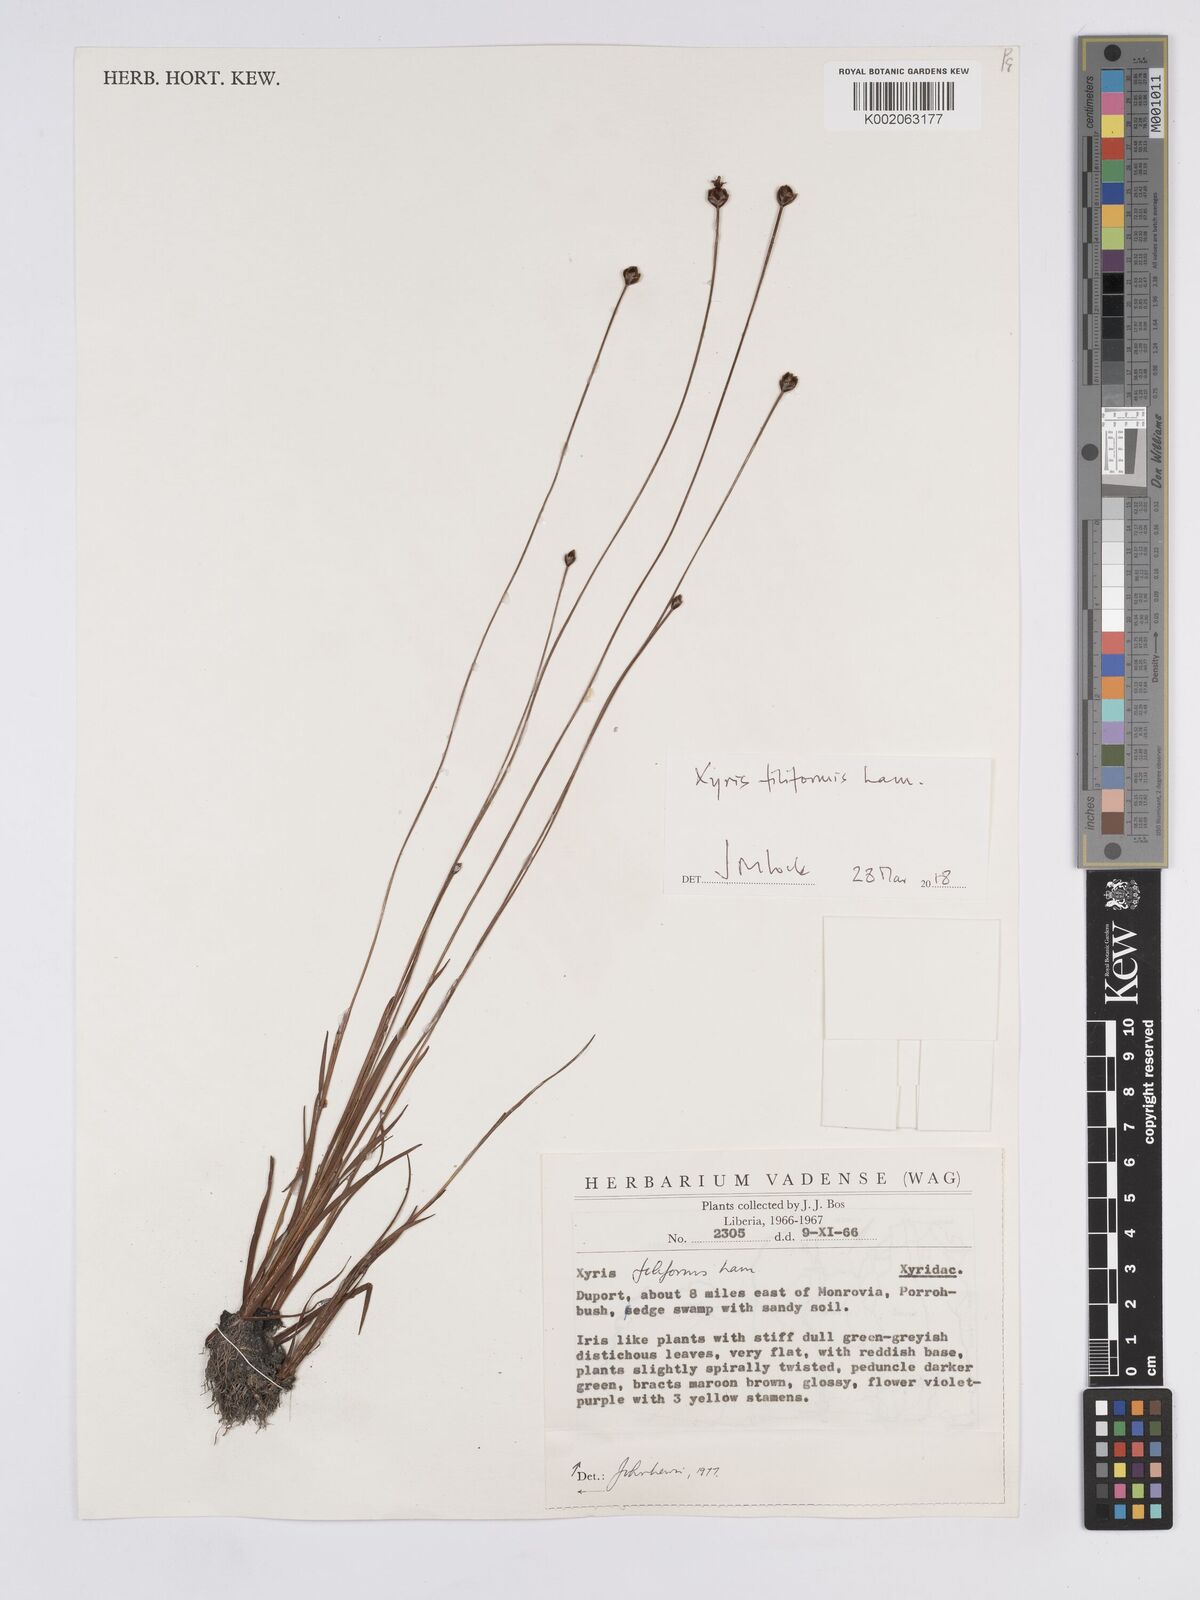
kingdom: Plantae
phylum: Tracheophyta
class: Liliopsida
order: Poales
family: Xyridaceae
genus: Xyris
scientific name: Xyris filiformis
